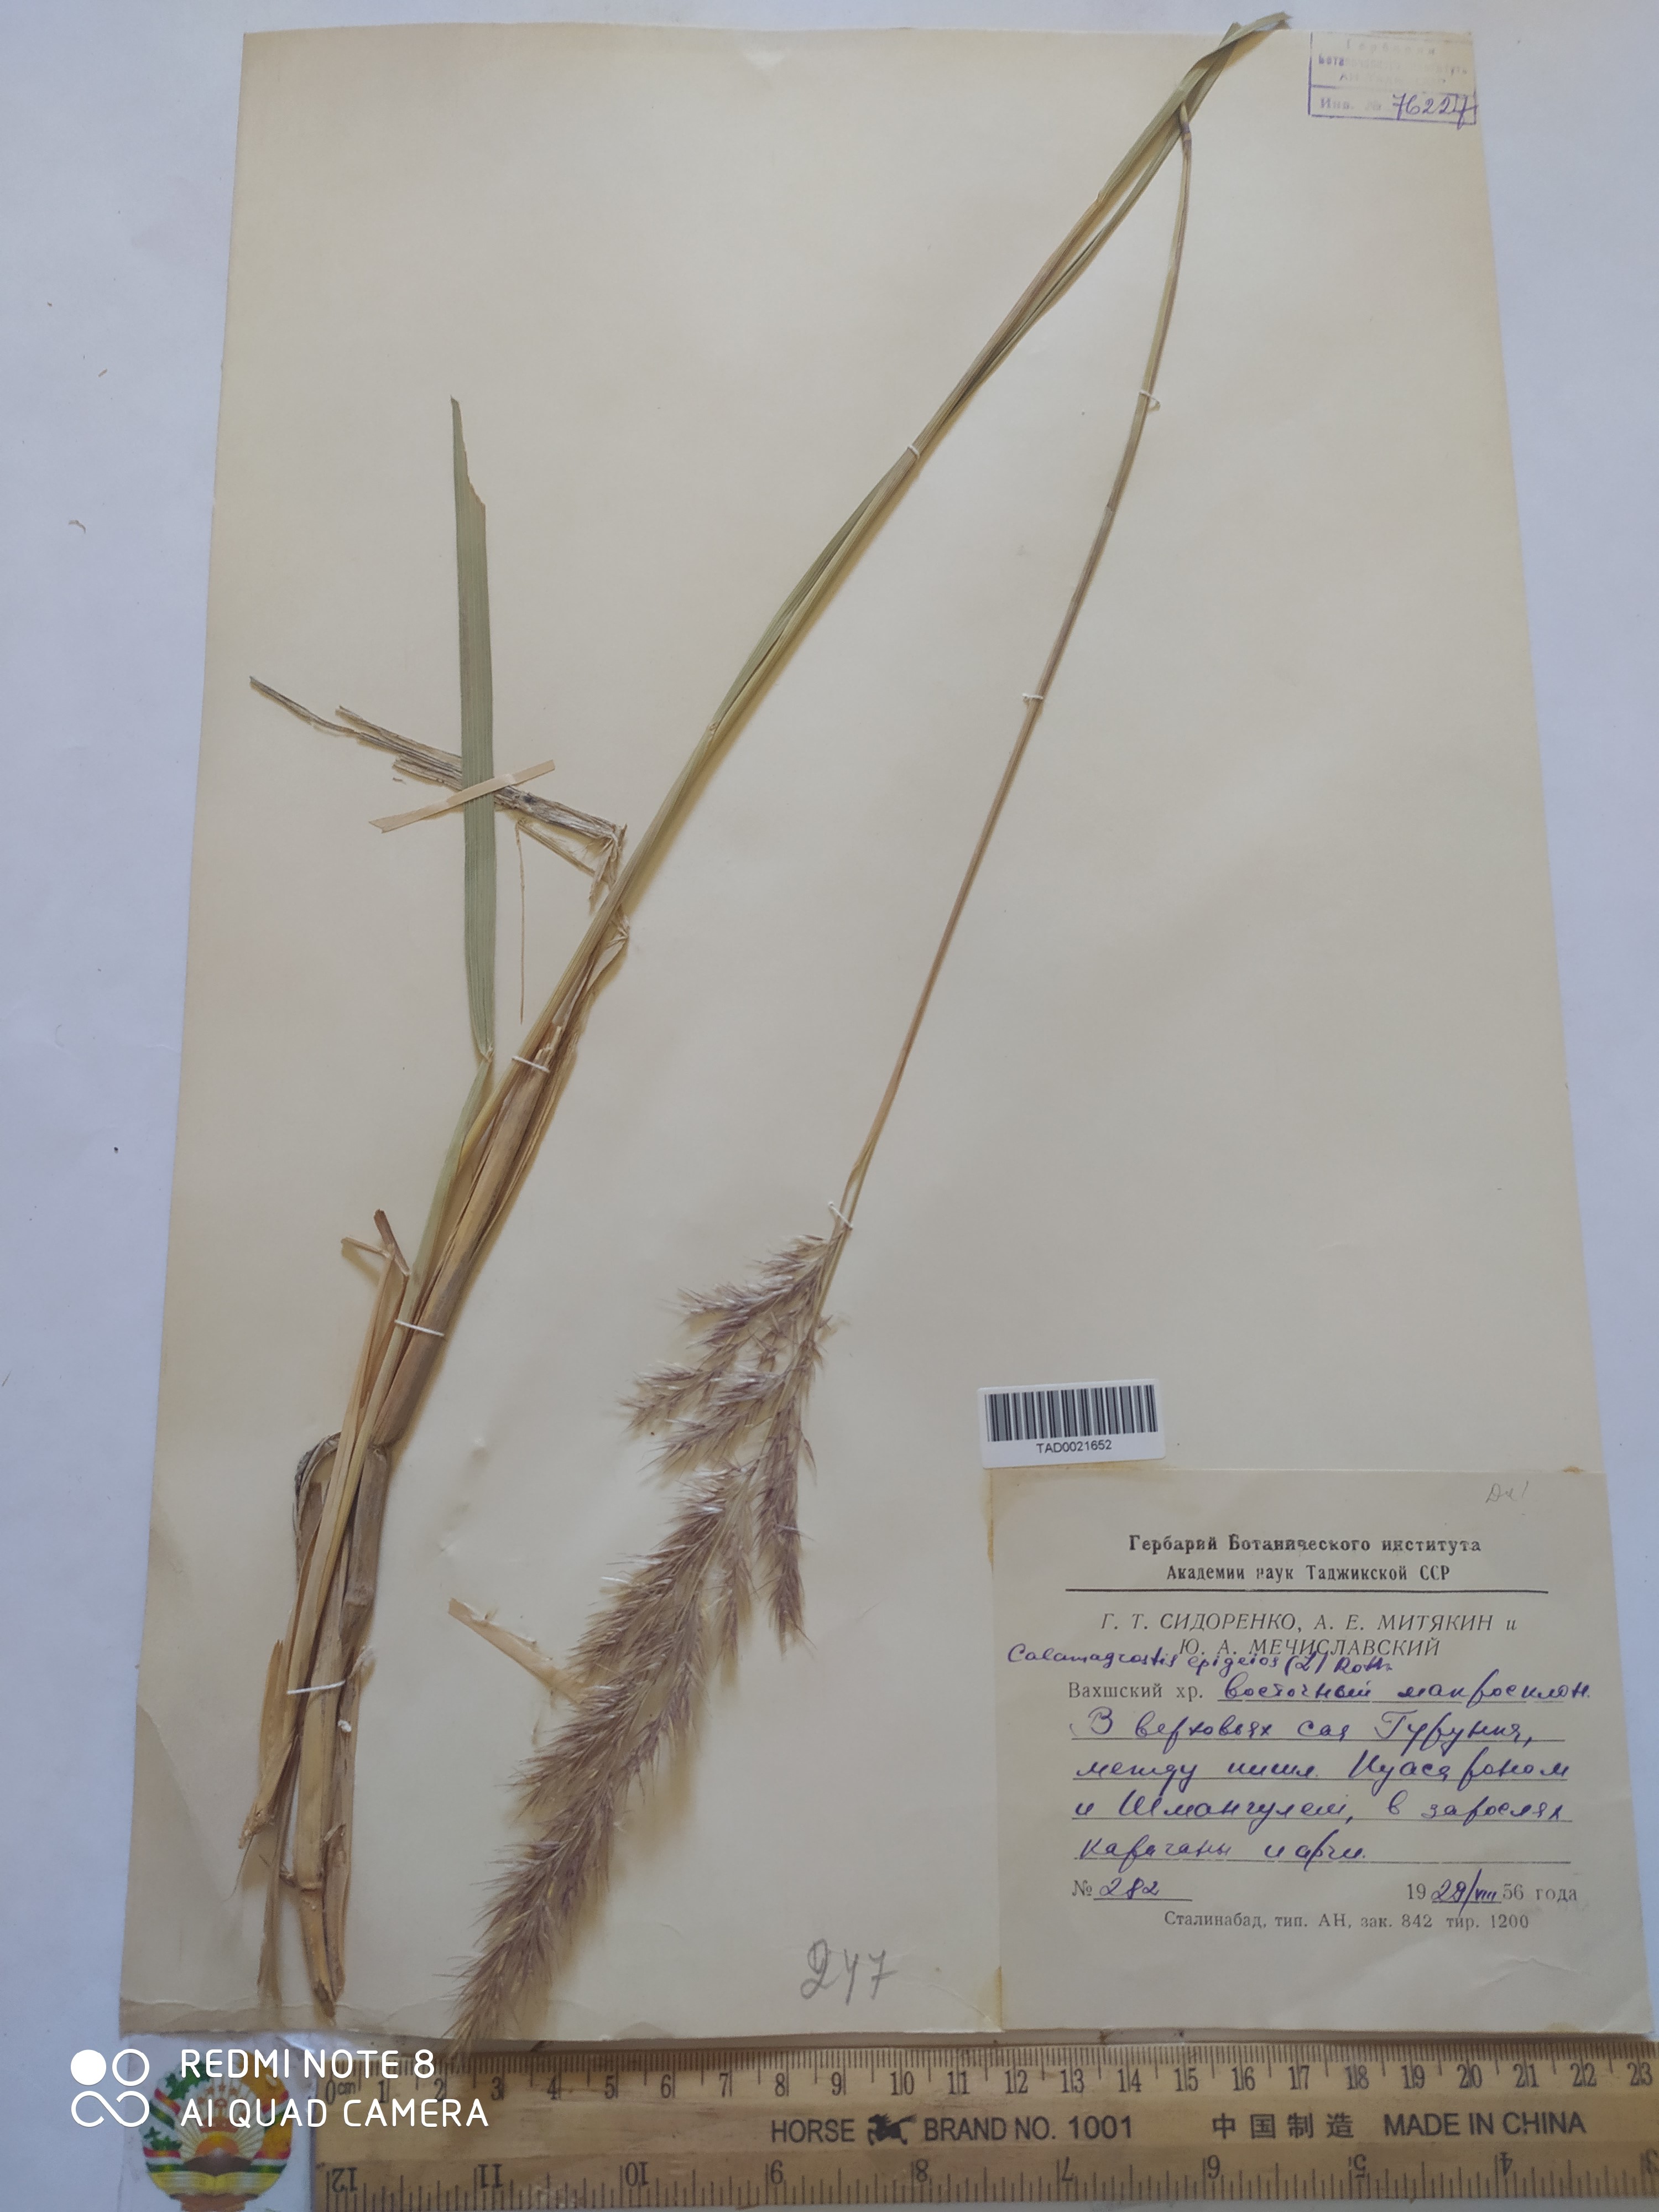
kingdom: Plantae
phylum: Tracheophyta
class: Liliopsida
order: Poales
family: Poaceae
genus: Calamagrostis
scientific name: Calamagrostis epigejos
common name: Wood small-reed
